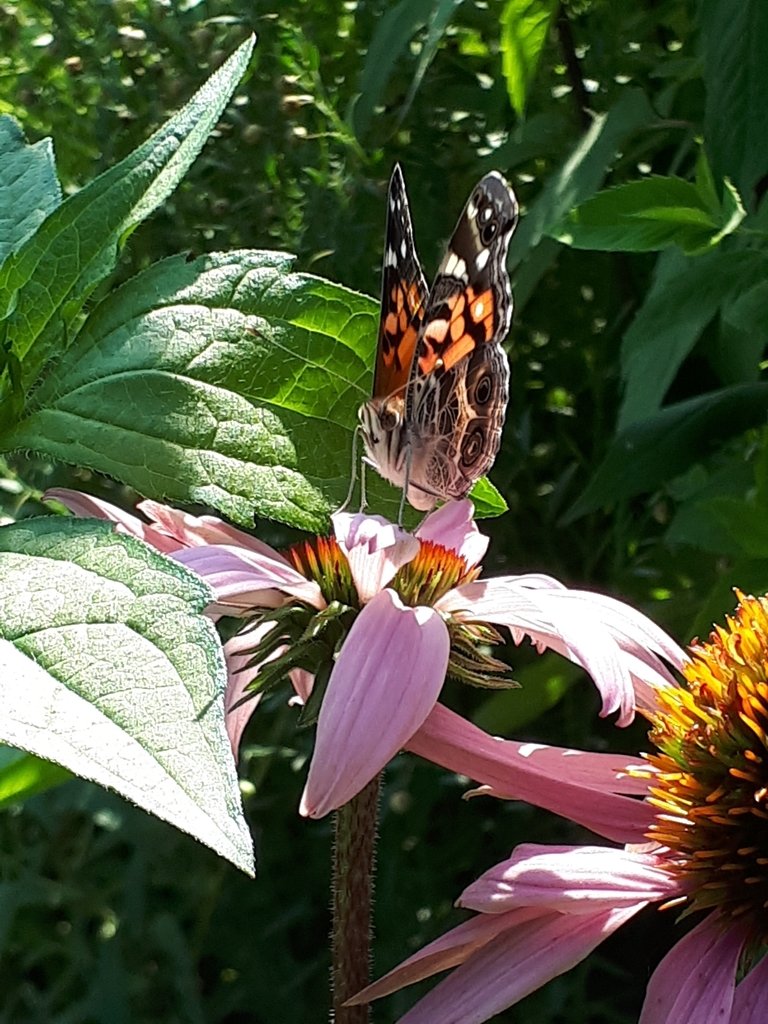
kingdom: Animalia
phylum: Arthropoda
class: Insecta
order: Lepidoptera
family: Nymphalidae
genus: Vanessa
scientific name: Vanessa virginiensis
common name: American Lady
